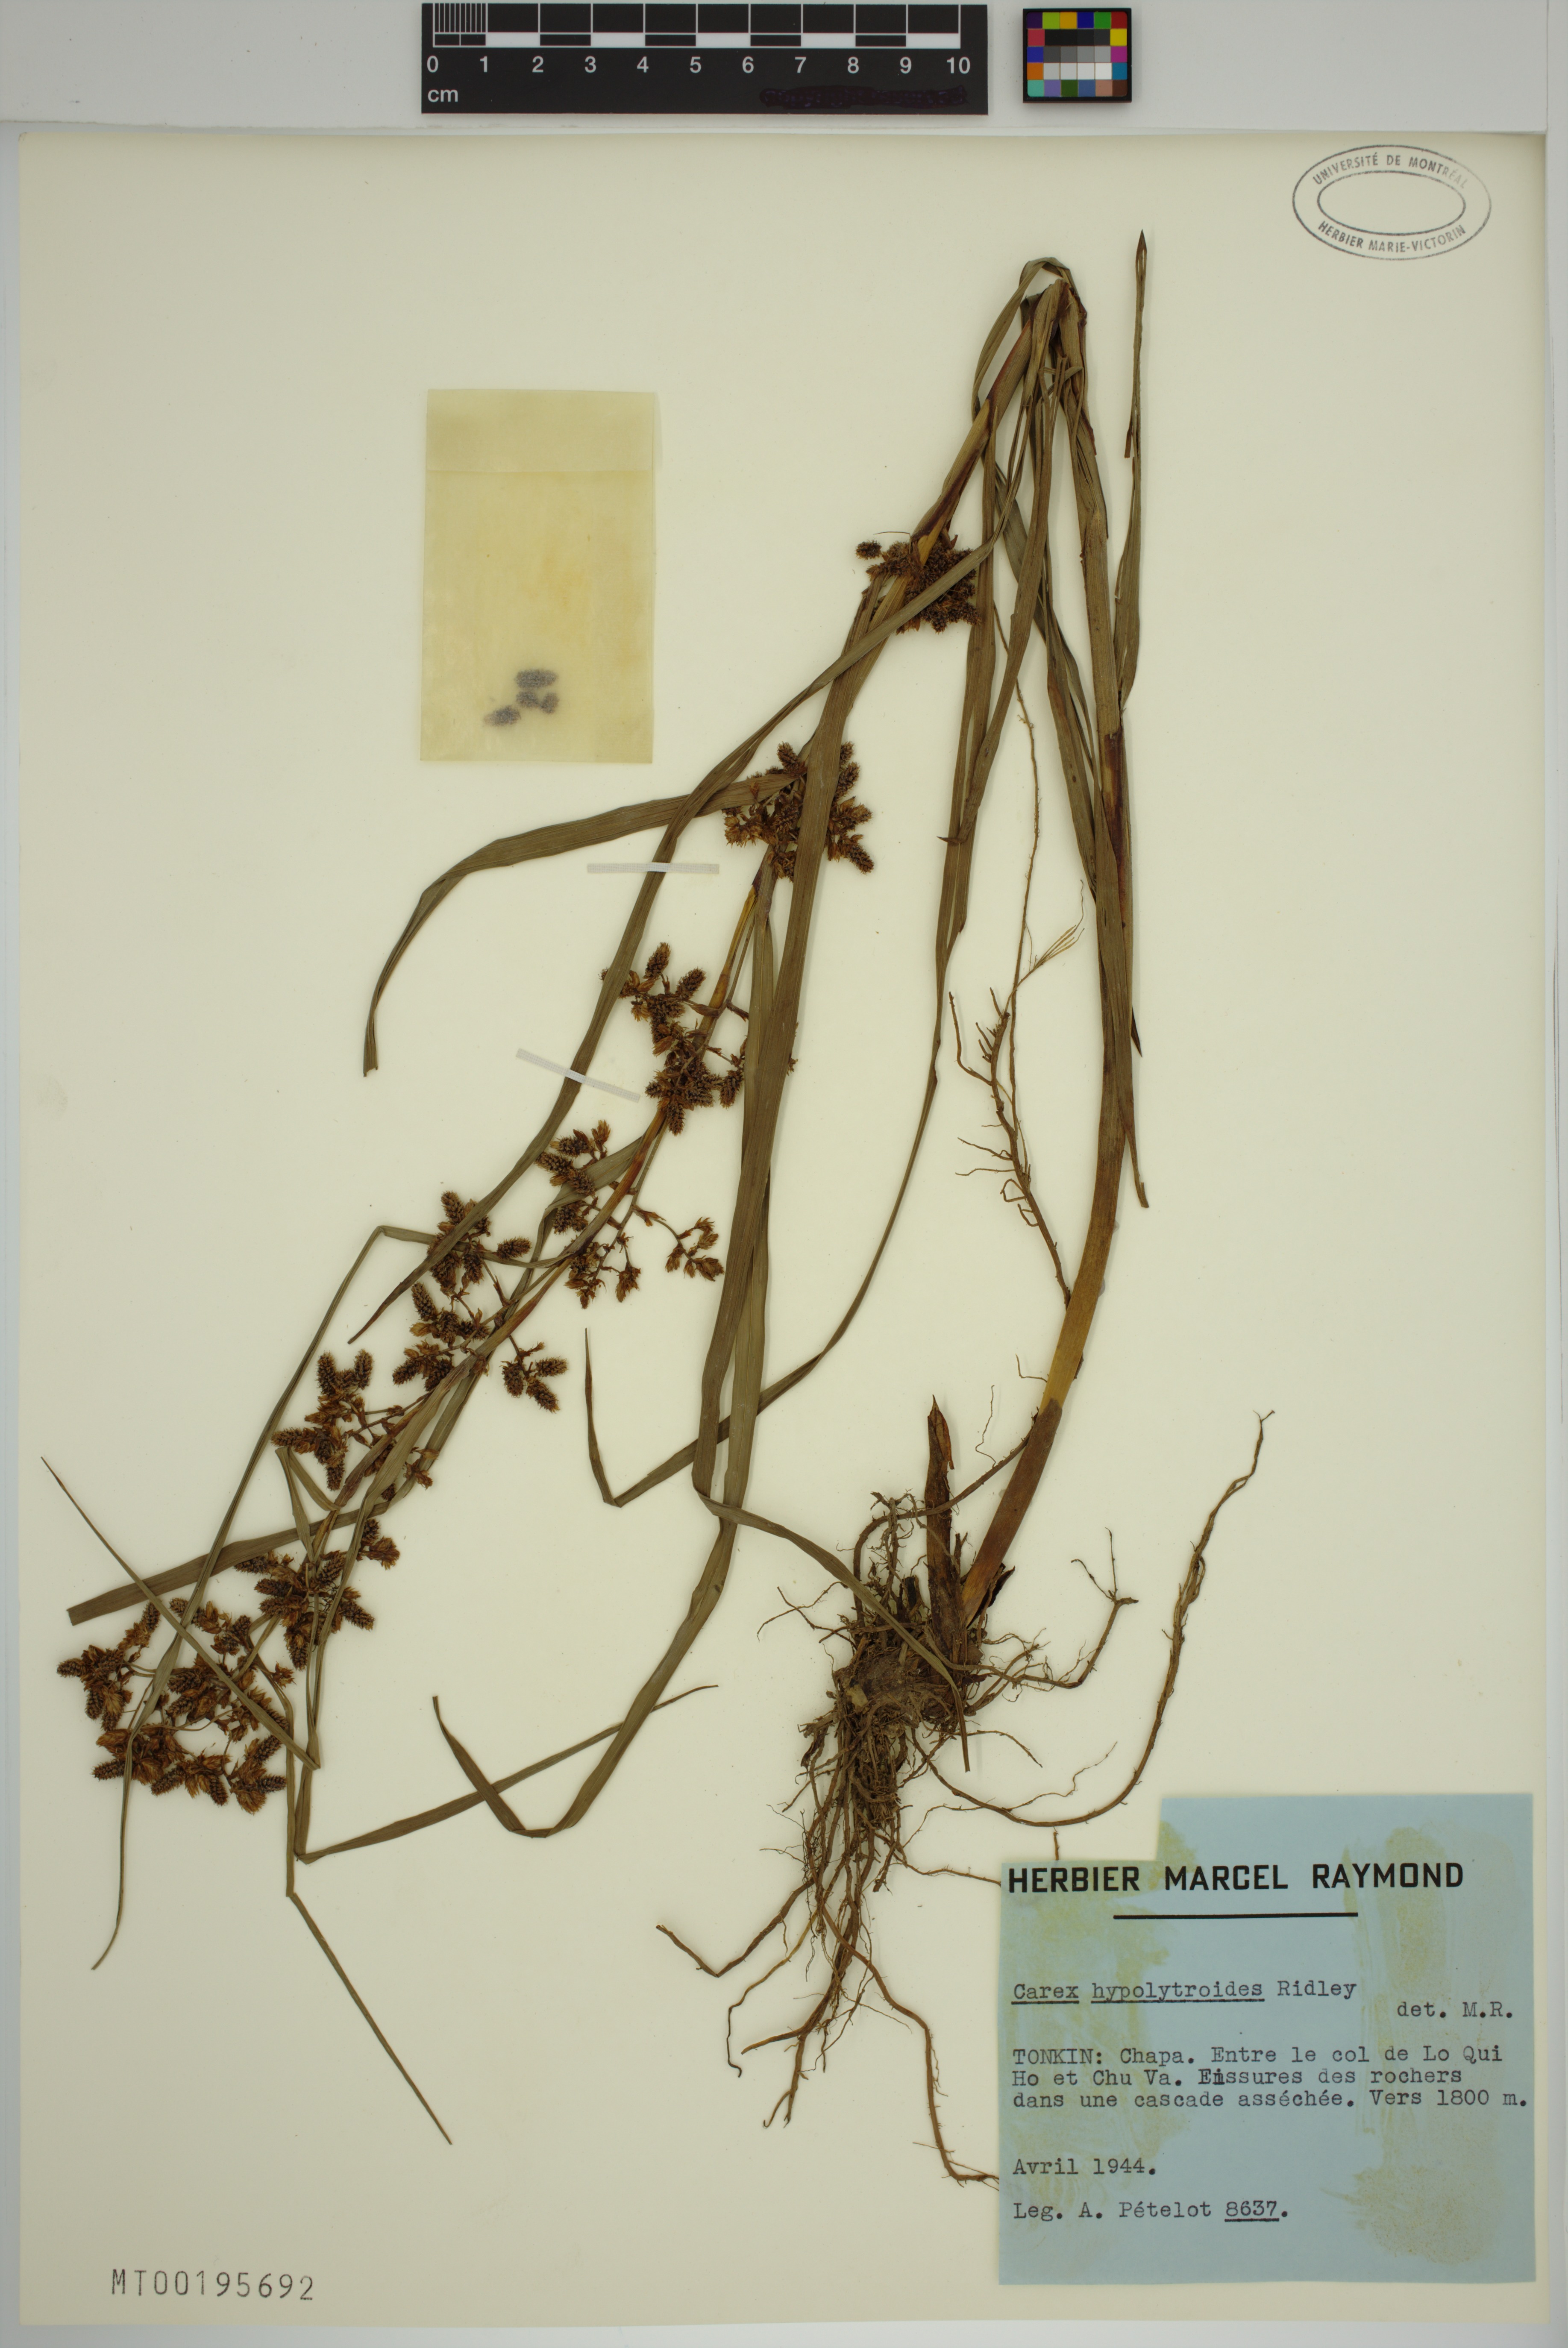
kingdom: Plantae
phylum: Tracheophyta
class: Liliopsida
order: Poales
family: Cyperaceae
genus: Carex
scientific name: Carex hypolytroides
